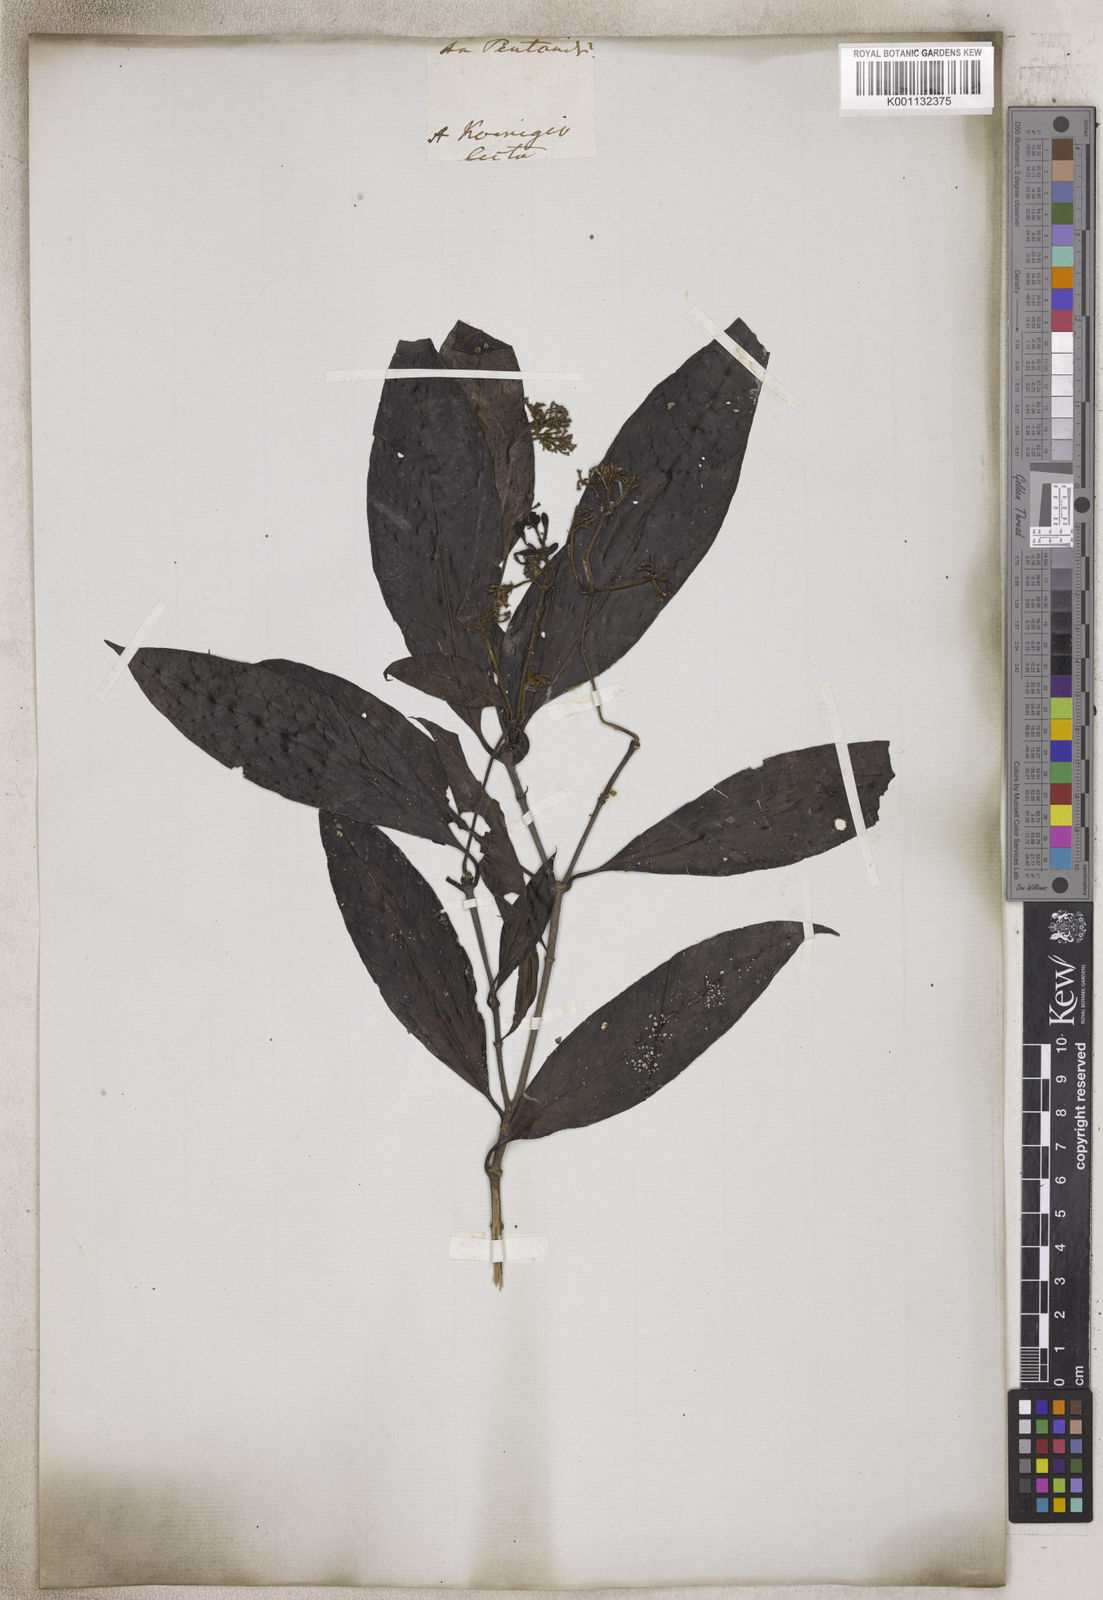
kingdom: Plantae
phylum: Tracheophyta
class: Magnoliopsida
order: Gentianales
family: Rubiaceae
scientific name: Rubiaceae
